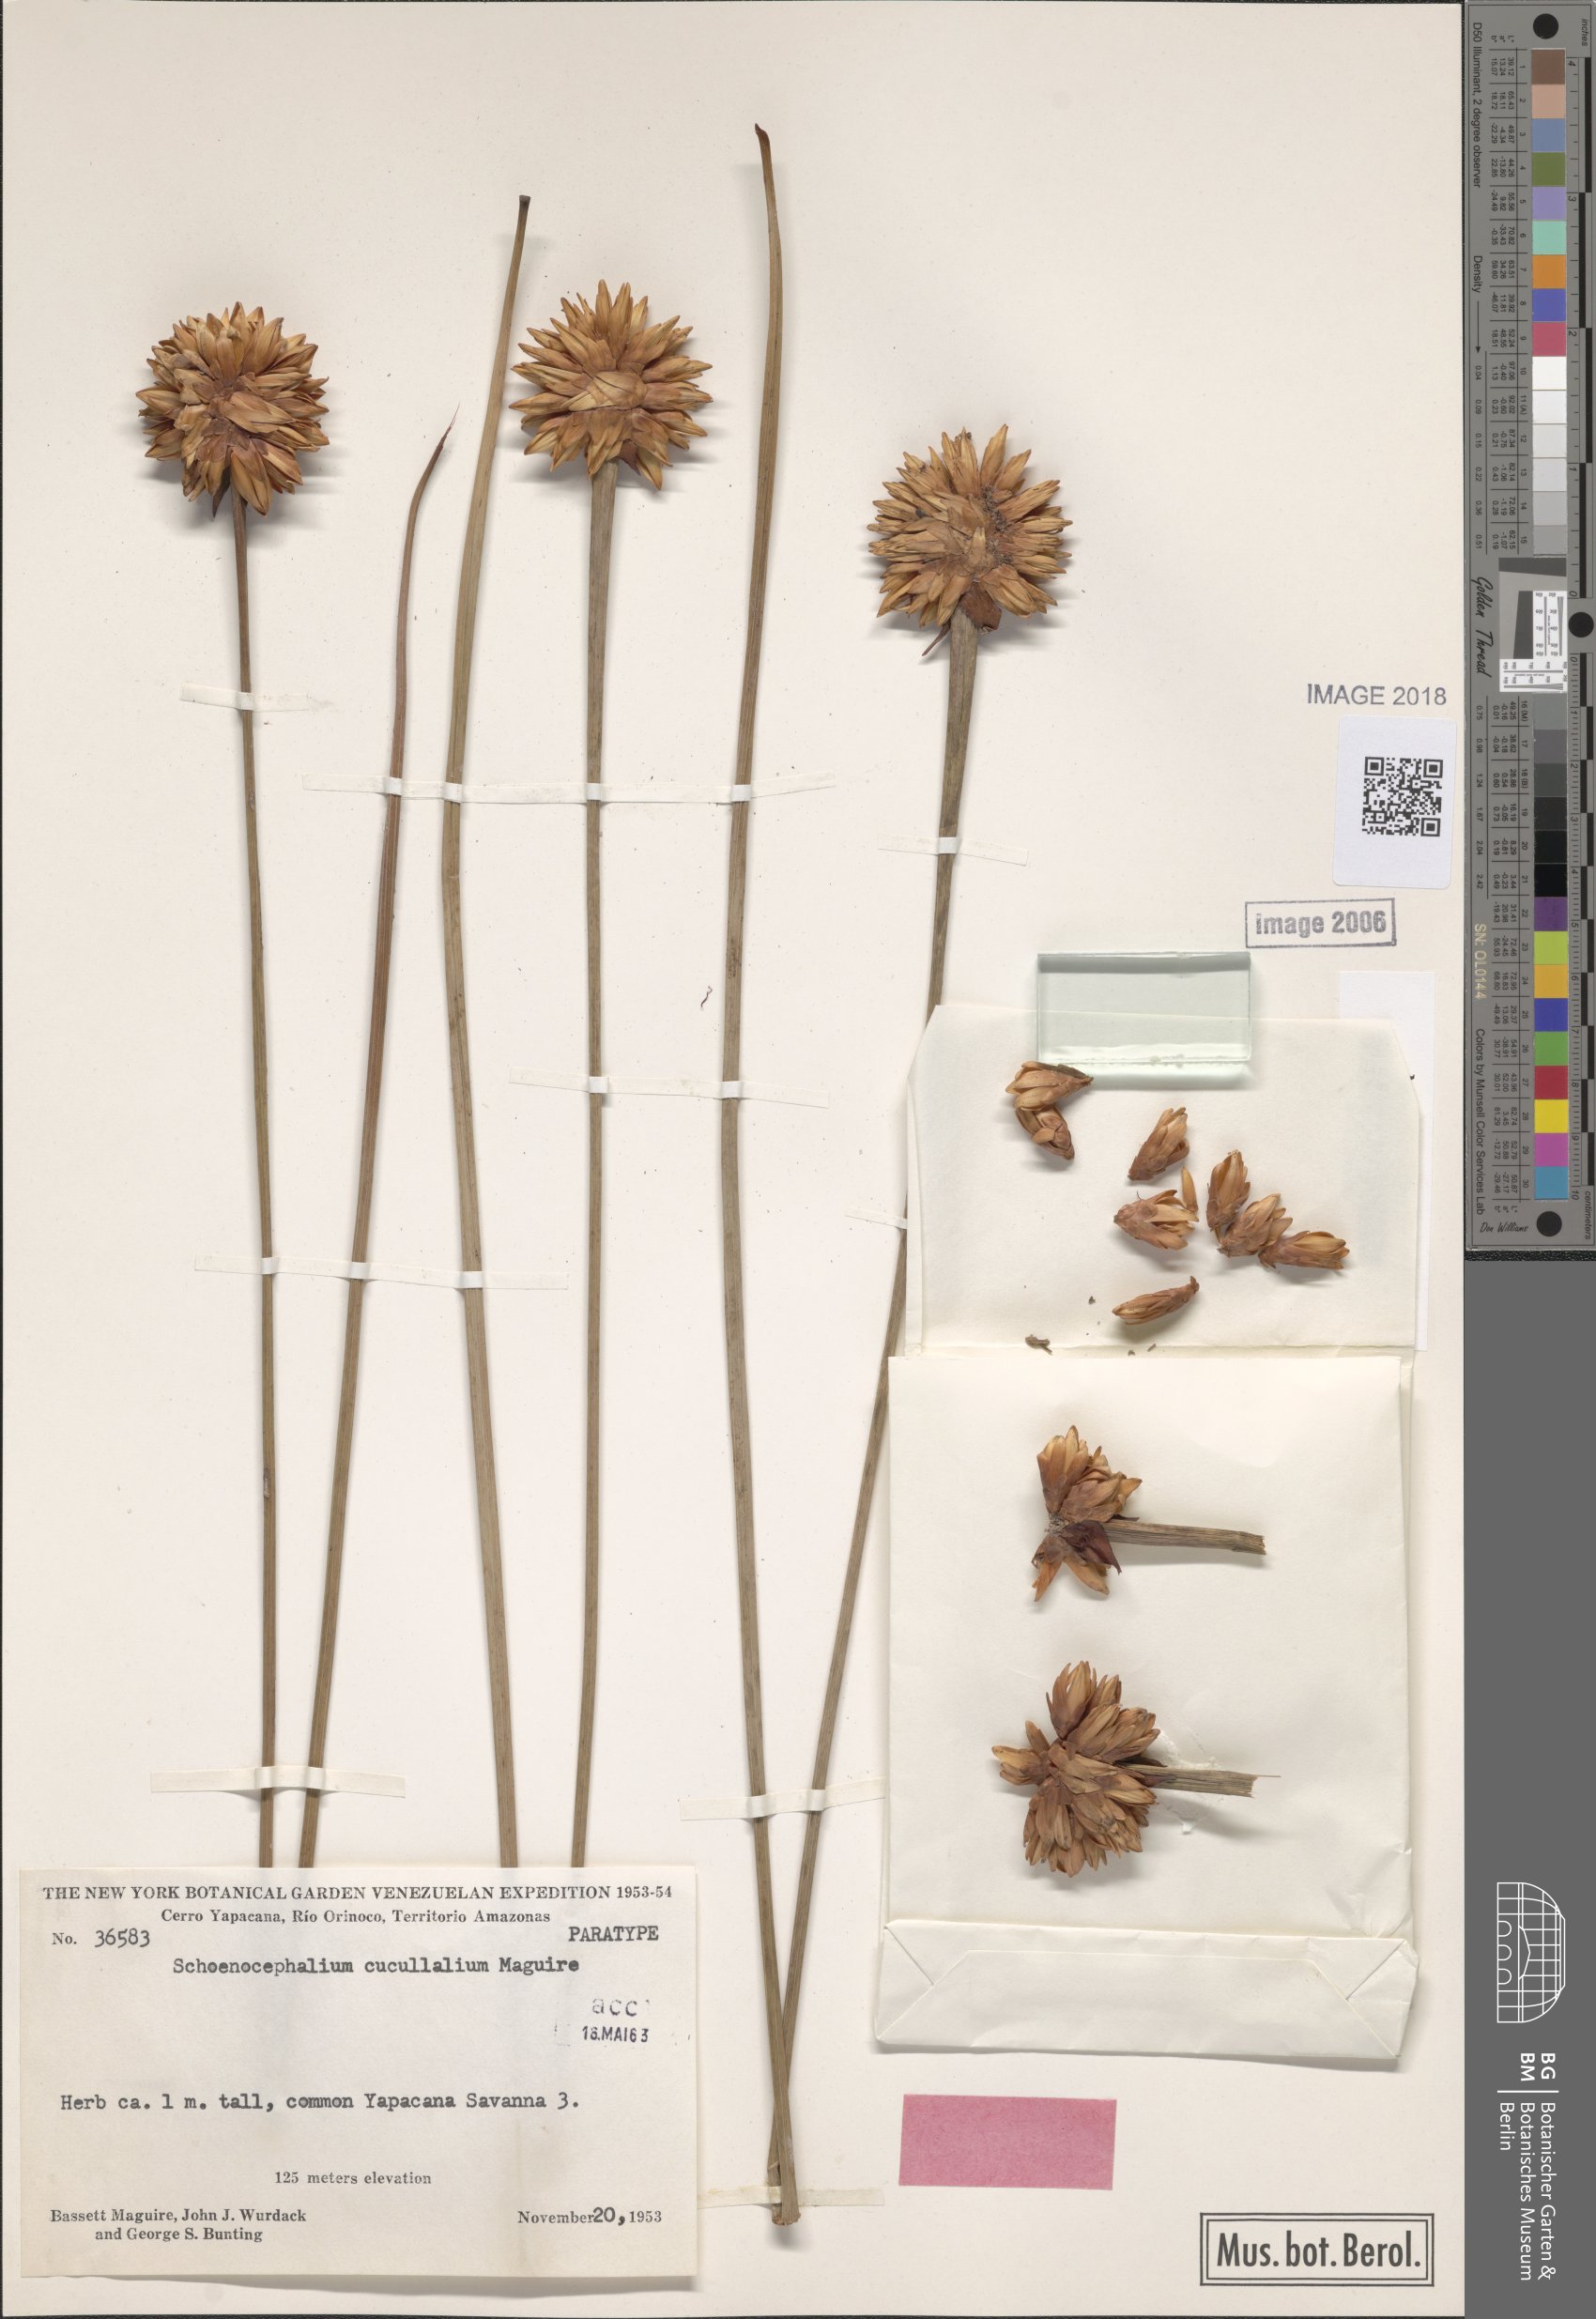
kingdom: Plantae
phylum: Tracheophyta
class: Liliopsida
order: Poales
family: Rapateaceae
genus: Schoenocephalium
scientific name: Schoenocephalium cucullatum
